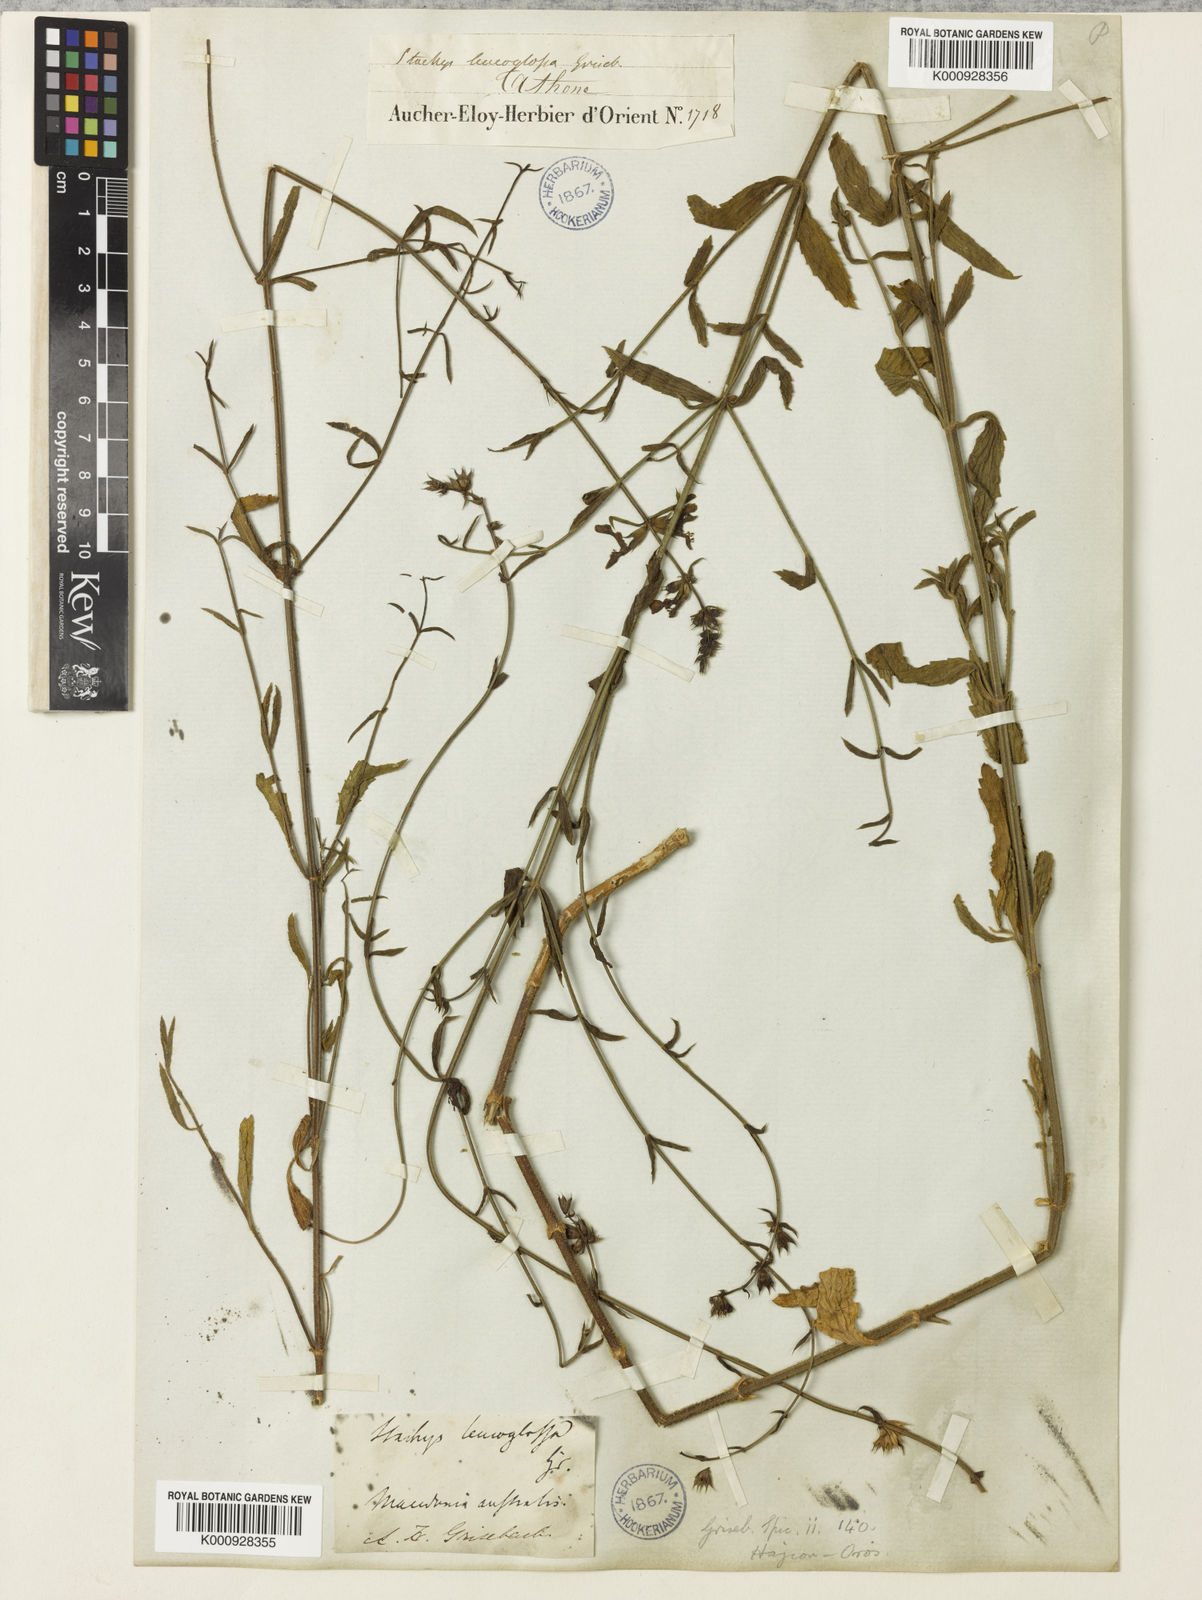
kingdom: Plantae
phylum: Tracheophyta
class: Magnoliopsida
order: Lamiales
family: Lamiaceae
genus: Stachys
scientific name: Stachys leucoglossa
